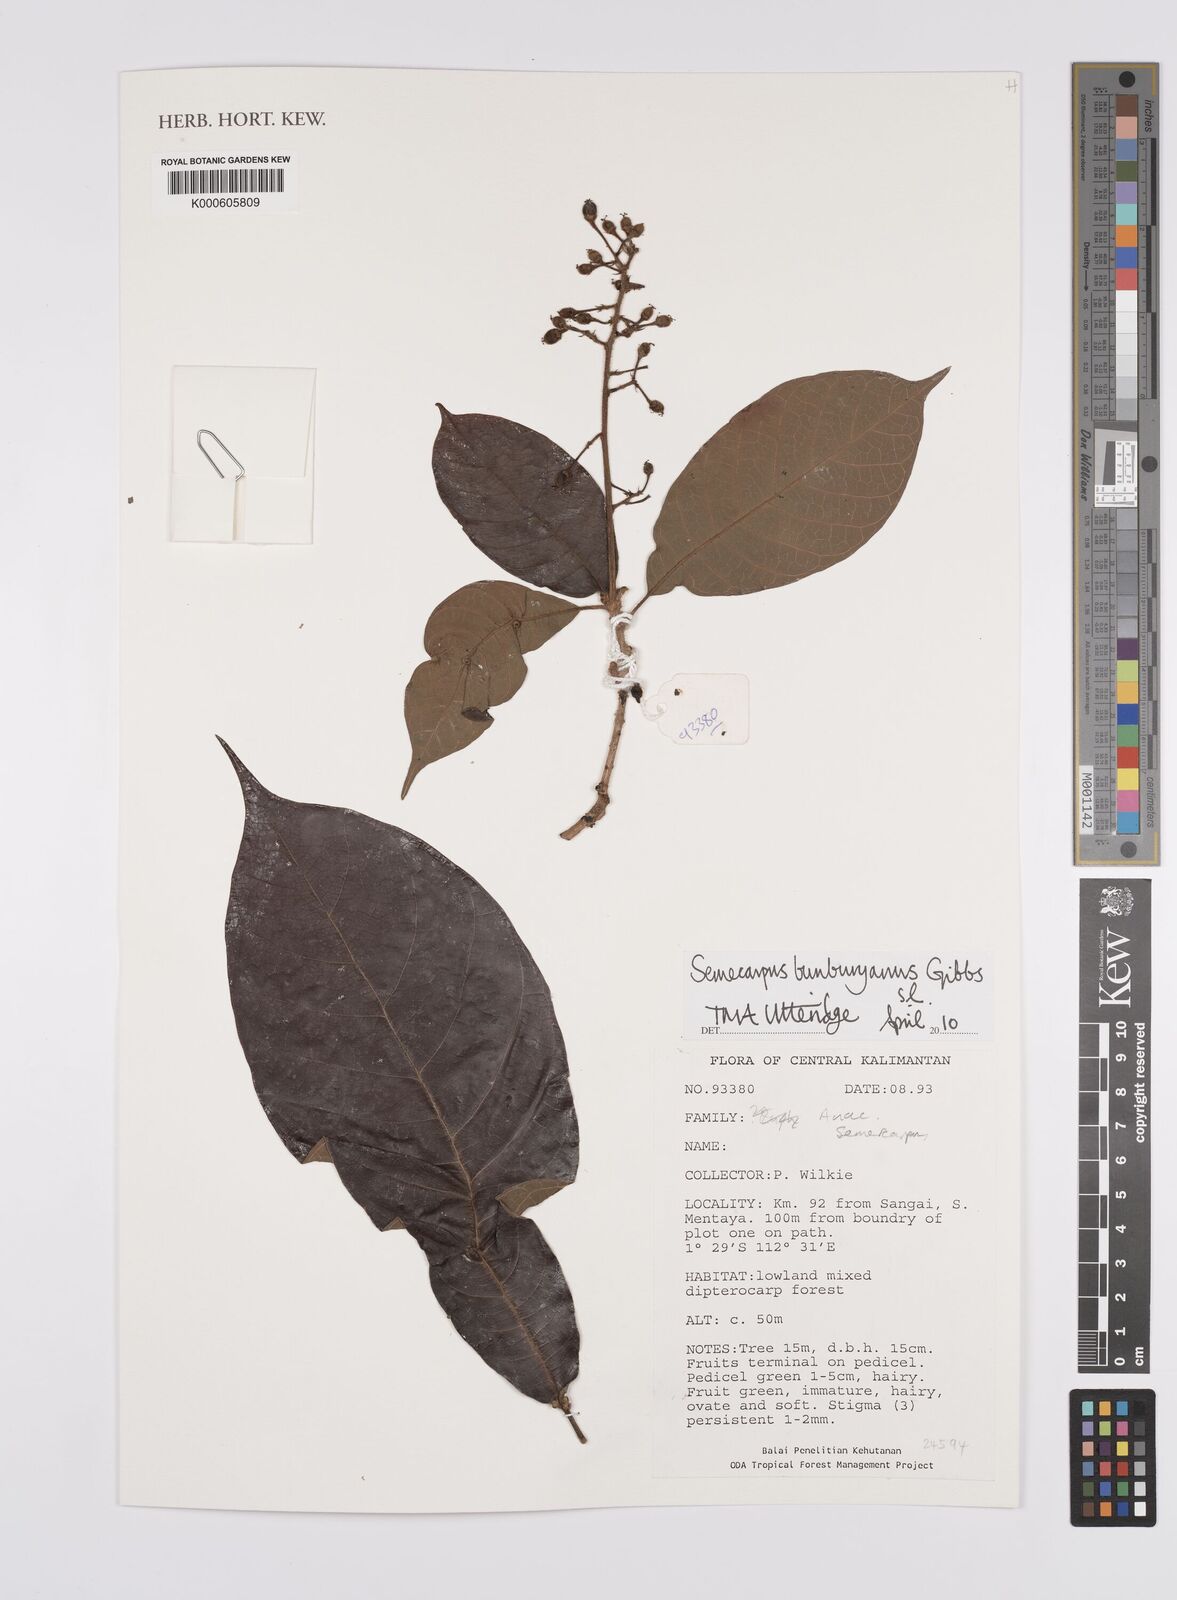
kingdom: Plantae
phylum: Tracheophyta
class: Magnoliopsida
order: Sapindales
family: Anacardiaceae
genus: Semecarpus
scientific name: Semecarpus bunburyanus
